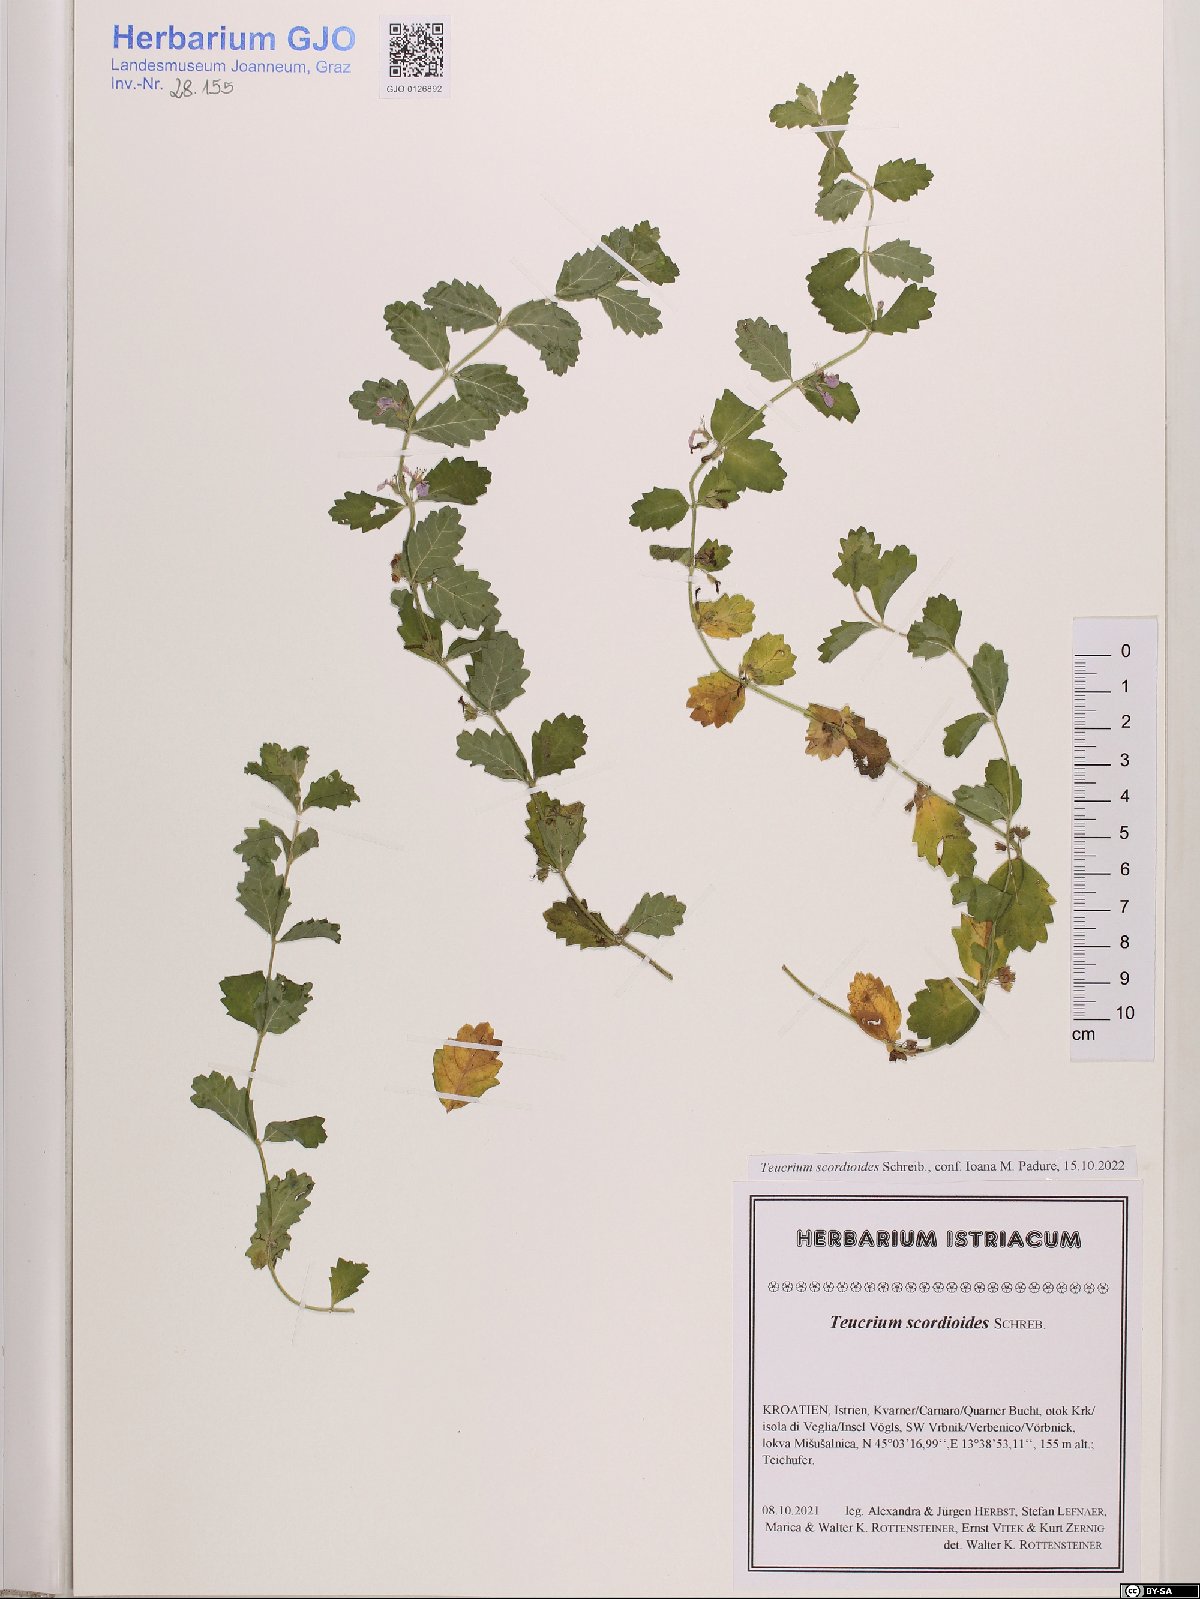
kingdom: Plantae
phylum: Tracheophyta
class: Magnoliopsida
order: Lamiales
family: Lamiaceae
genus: Teucrium
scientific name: Teucrium scordium
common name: Water germander
